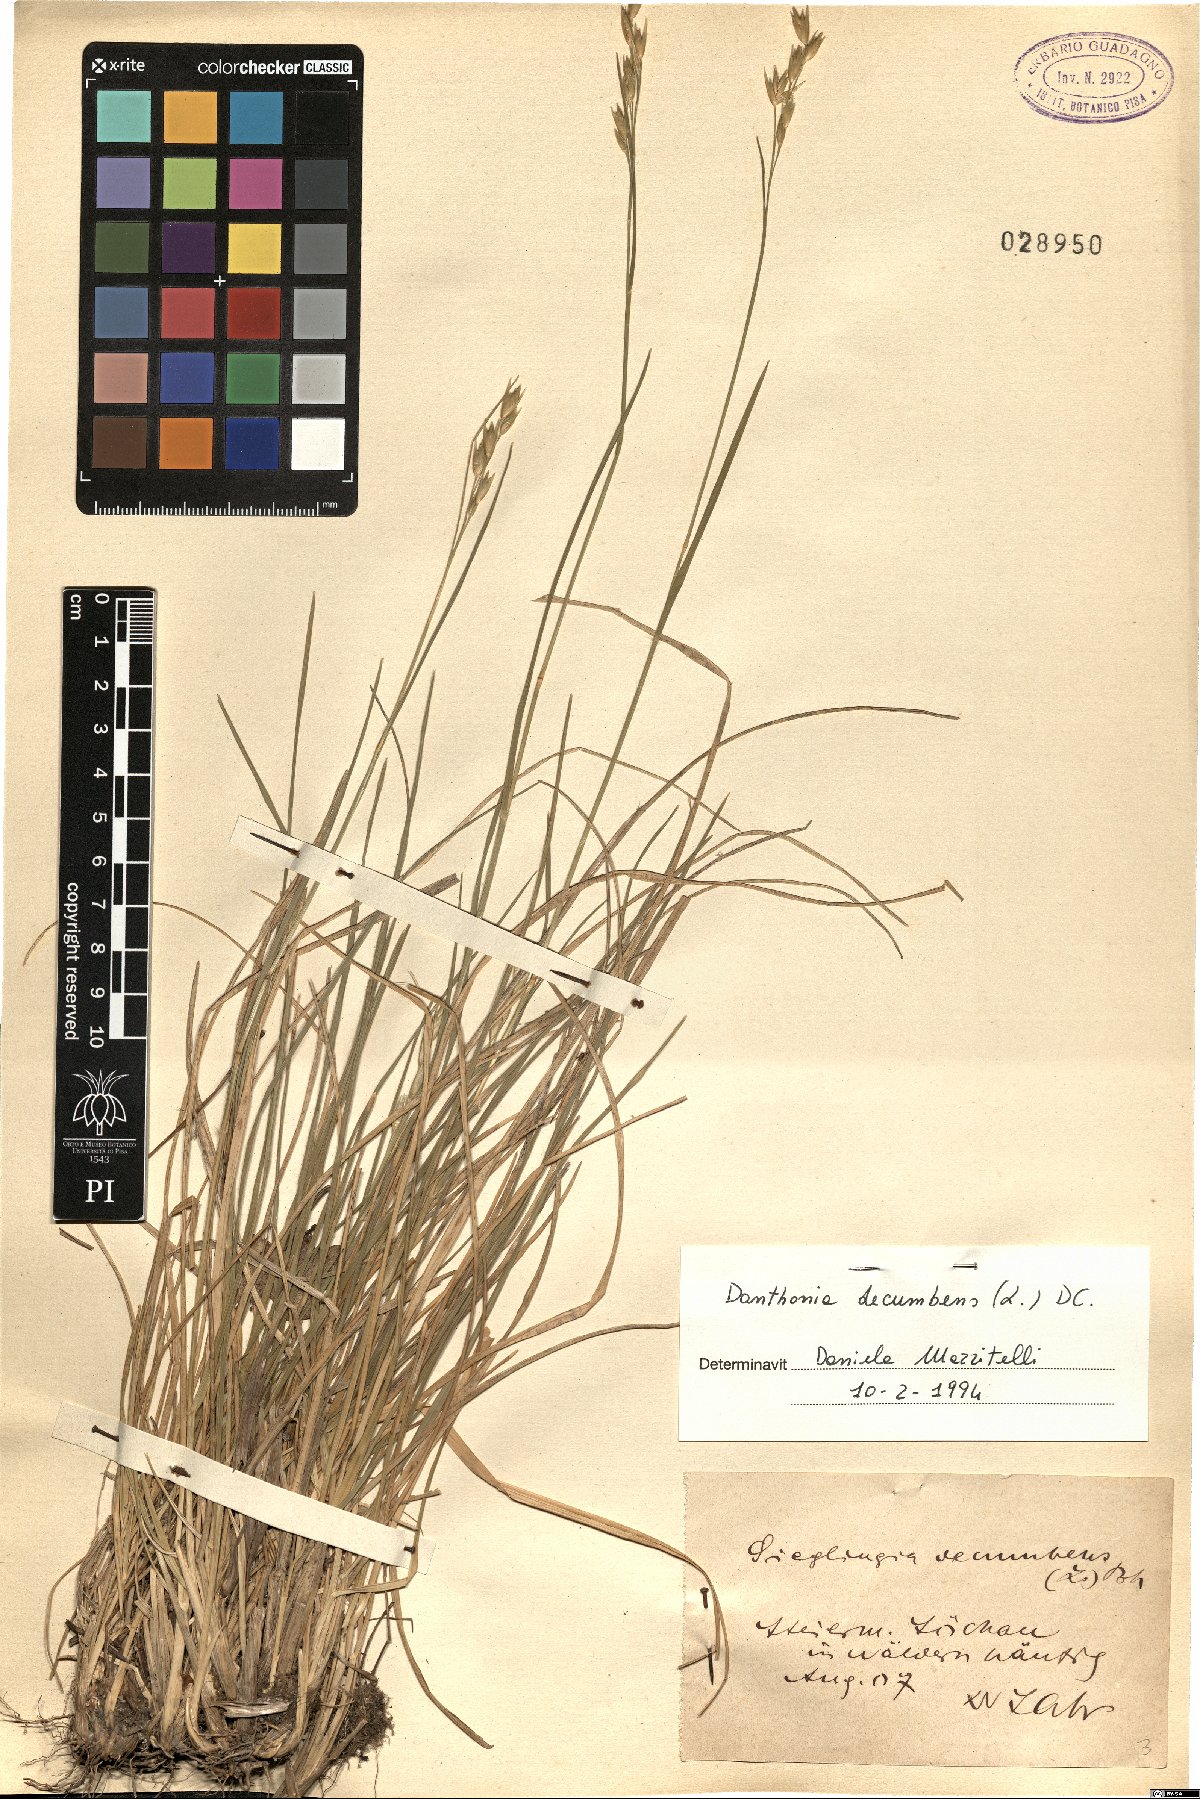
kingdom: Plantae
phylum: Tracheophyta
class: Liliopsida
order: Poales
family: Poaceae
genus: Danthonia
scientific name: Danthonia decumbens
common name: Common heathgrass
